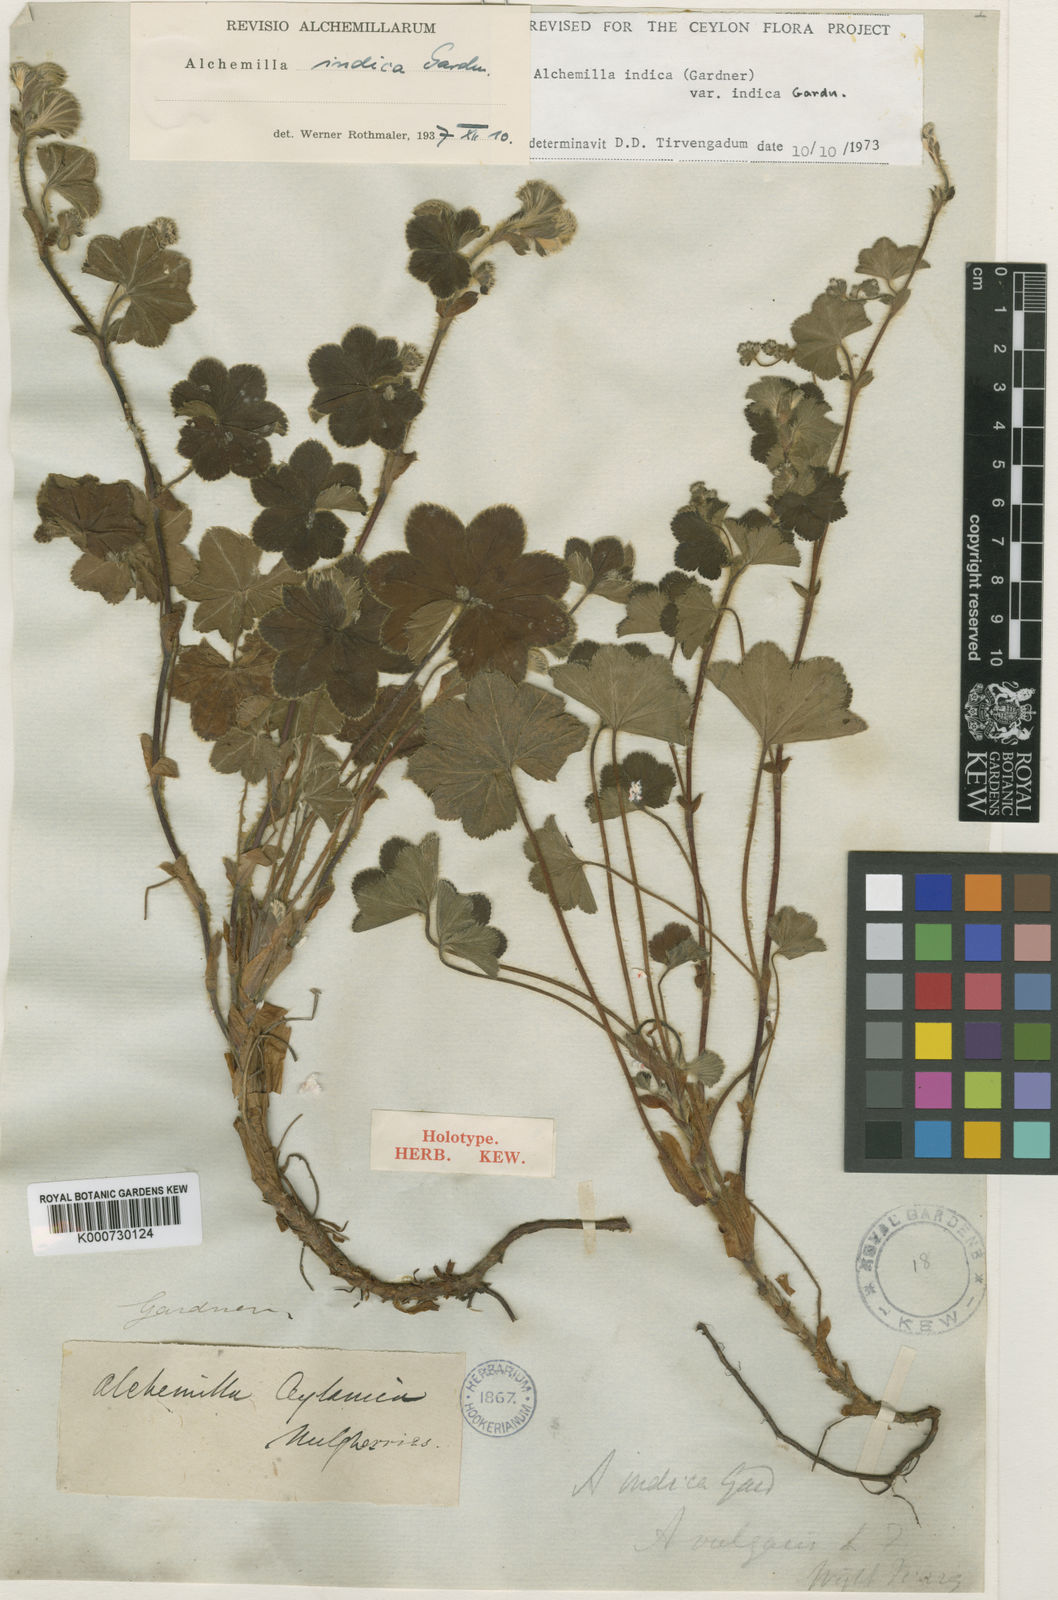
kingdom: Plantae
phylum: Tracheophyta
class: Magnoliopsida
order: Rosales
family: Rosaceae
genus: Alchemilla
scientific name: Alchemilla indica
